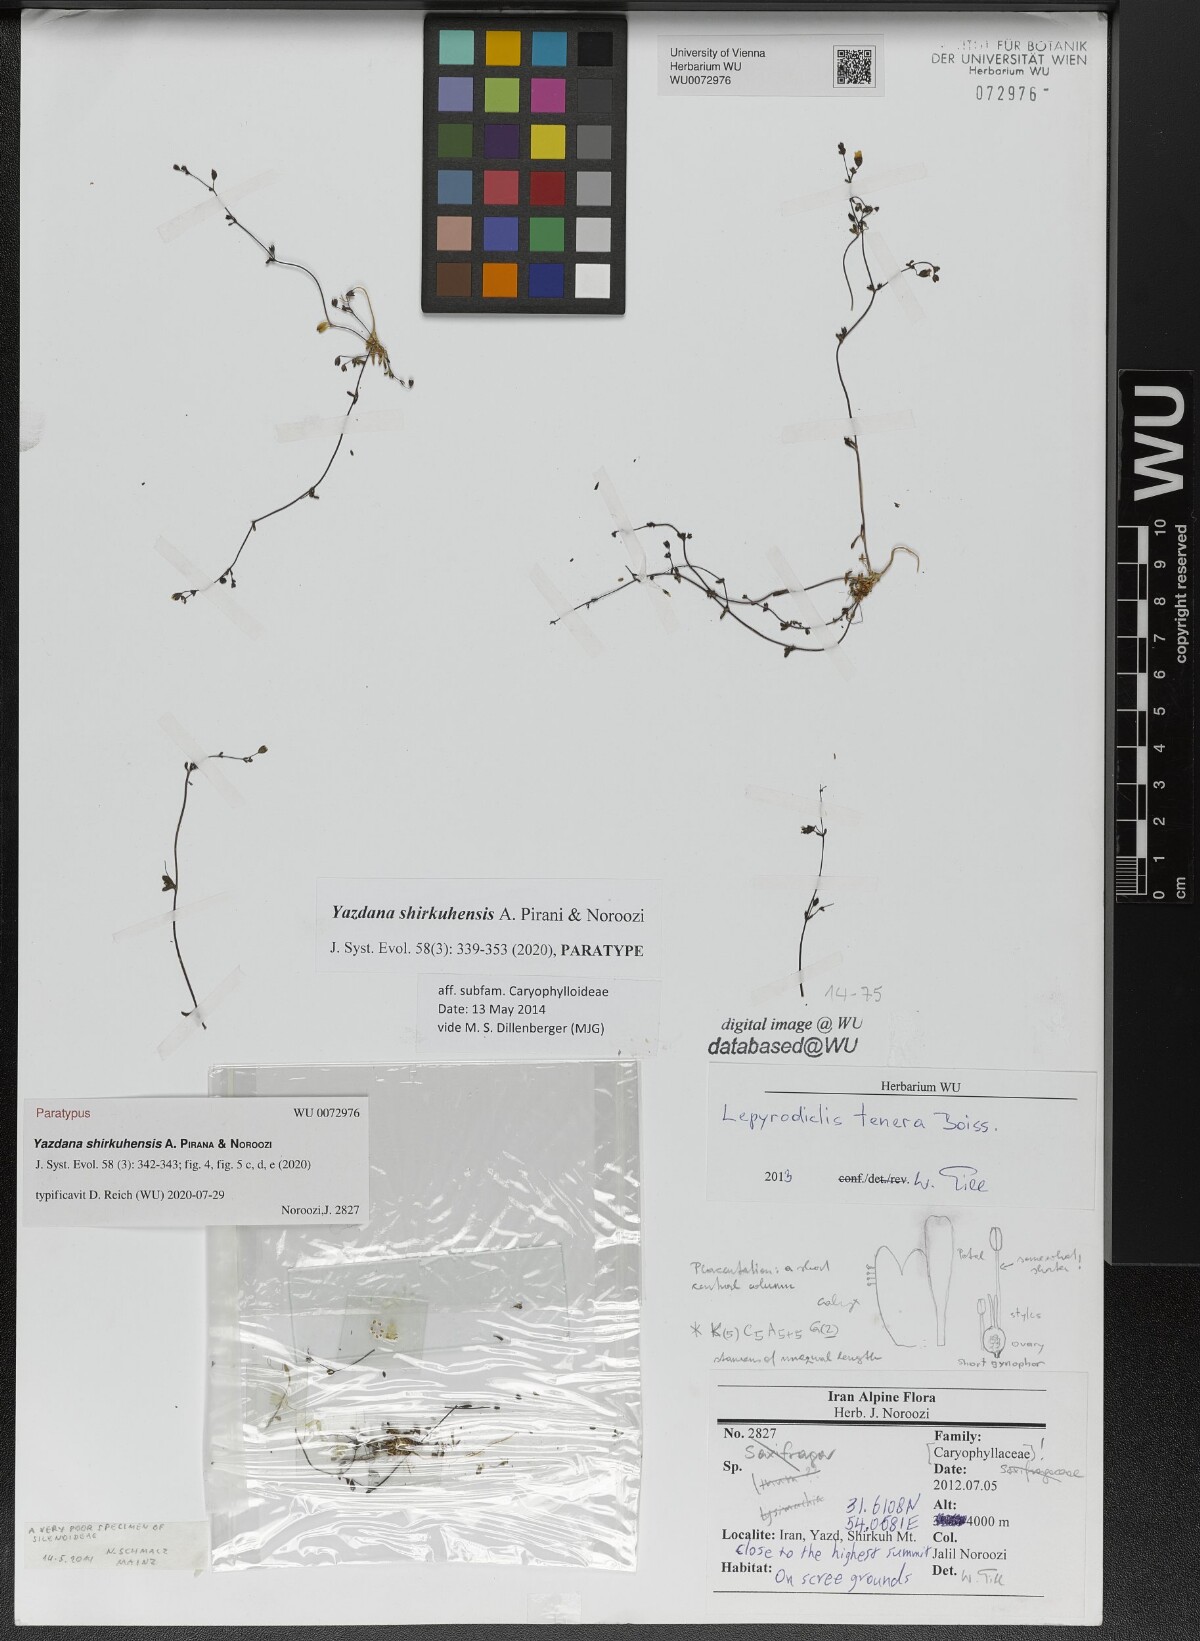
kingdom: Plantae
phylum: Tracheophyta
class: Magnoliopsida
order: Caryophyllales
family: Caryophyllaceae
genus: Yazdana
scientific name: Yazdana shirkuhensis
